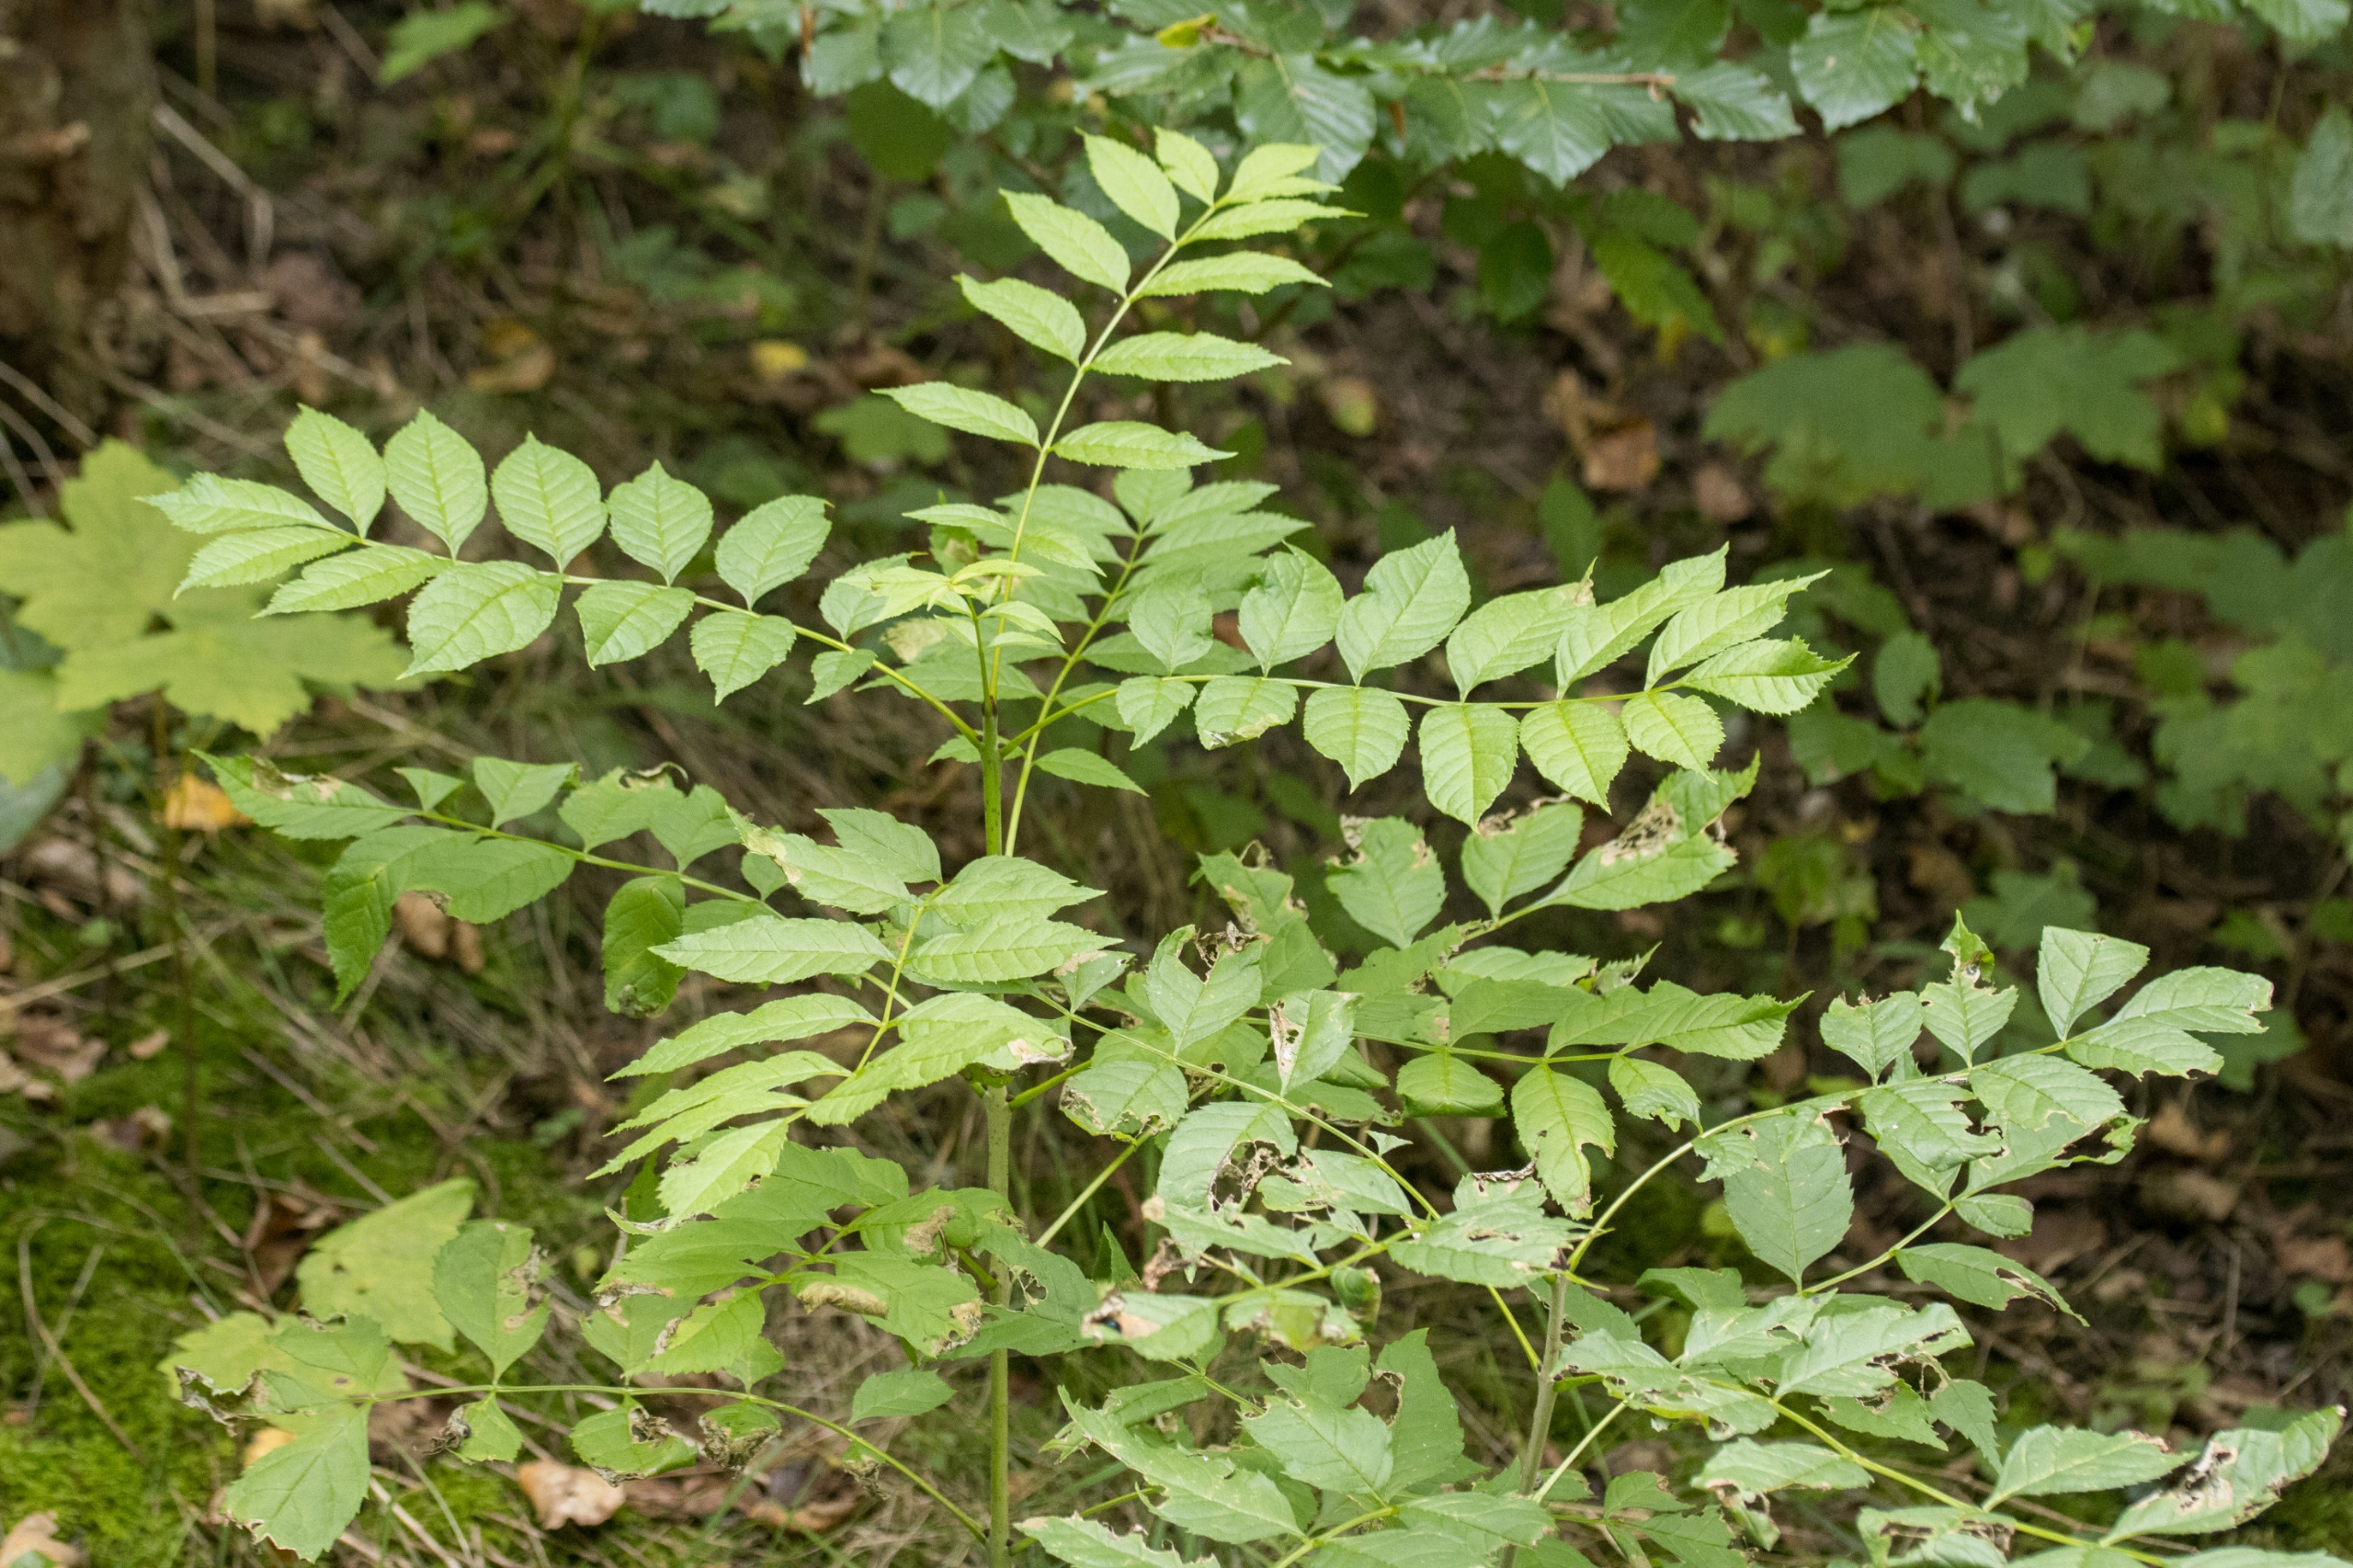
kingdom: Plantae
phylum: Tracheophyta
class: Magnoliopsida
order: Lamiales
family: Oleaceae
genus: Fraxinus
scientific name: Fraxinus excelsior
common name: Ask
